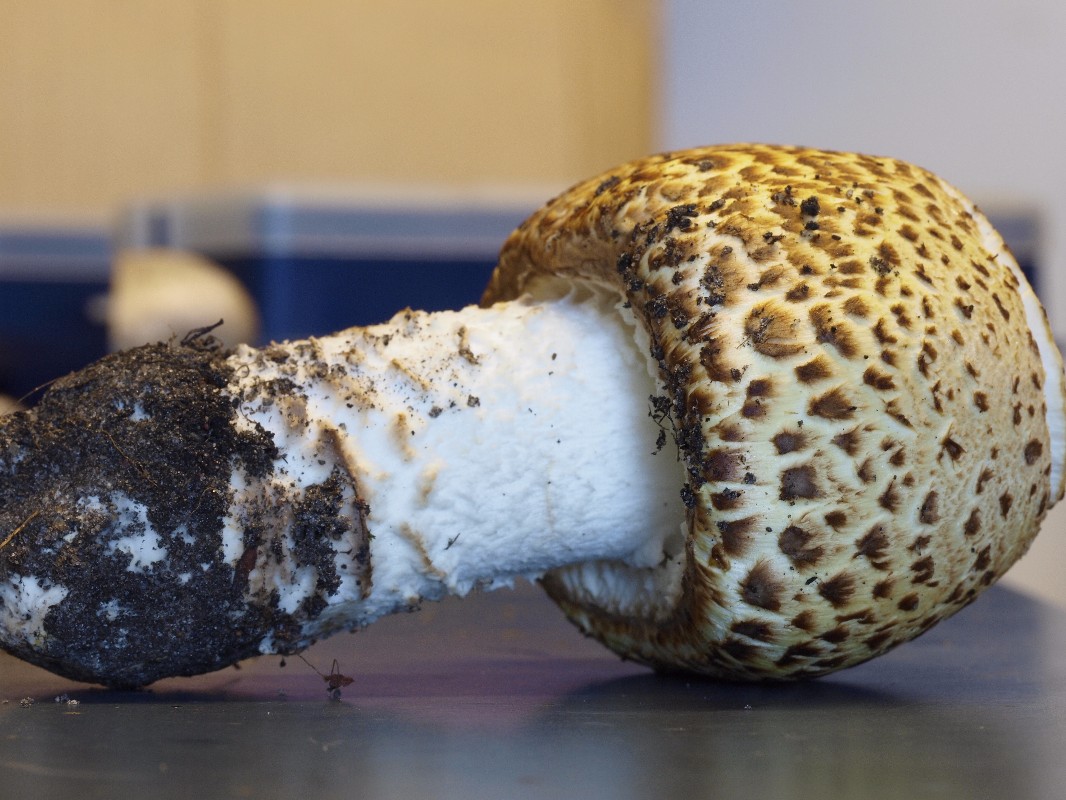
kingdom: Fungi
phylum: Basidiomycota
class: Agaricomycetes
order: Agaricales
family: Agaricaceae
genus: Agaricus
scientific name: Agaricus augustus
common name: prægtig champignon
